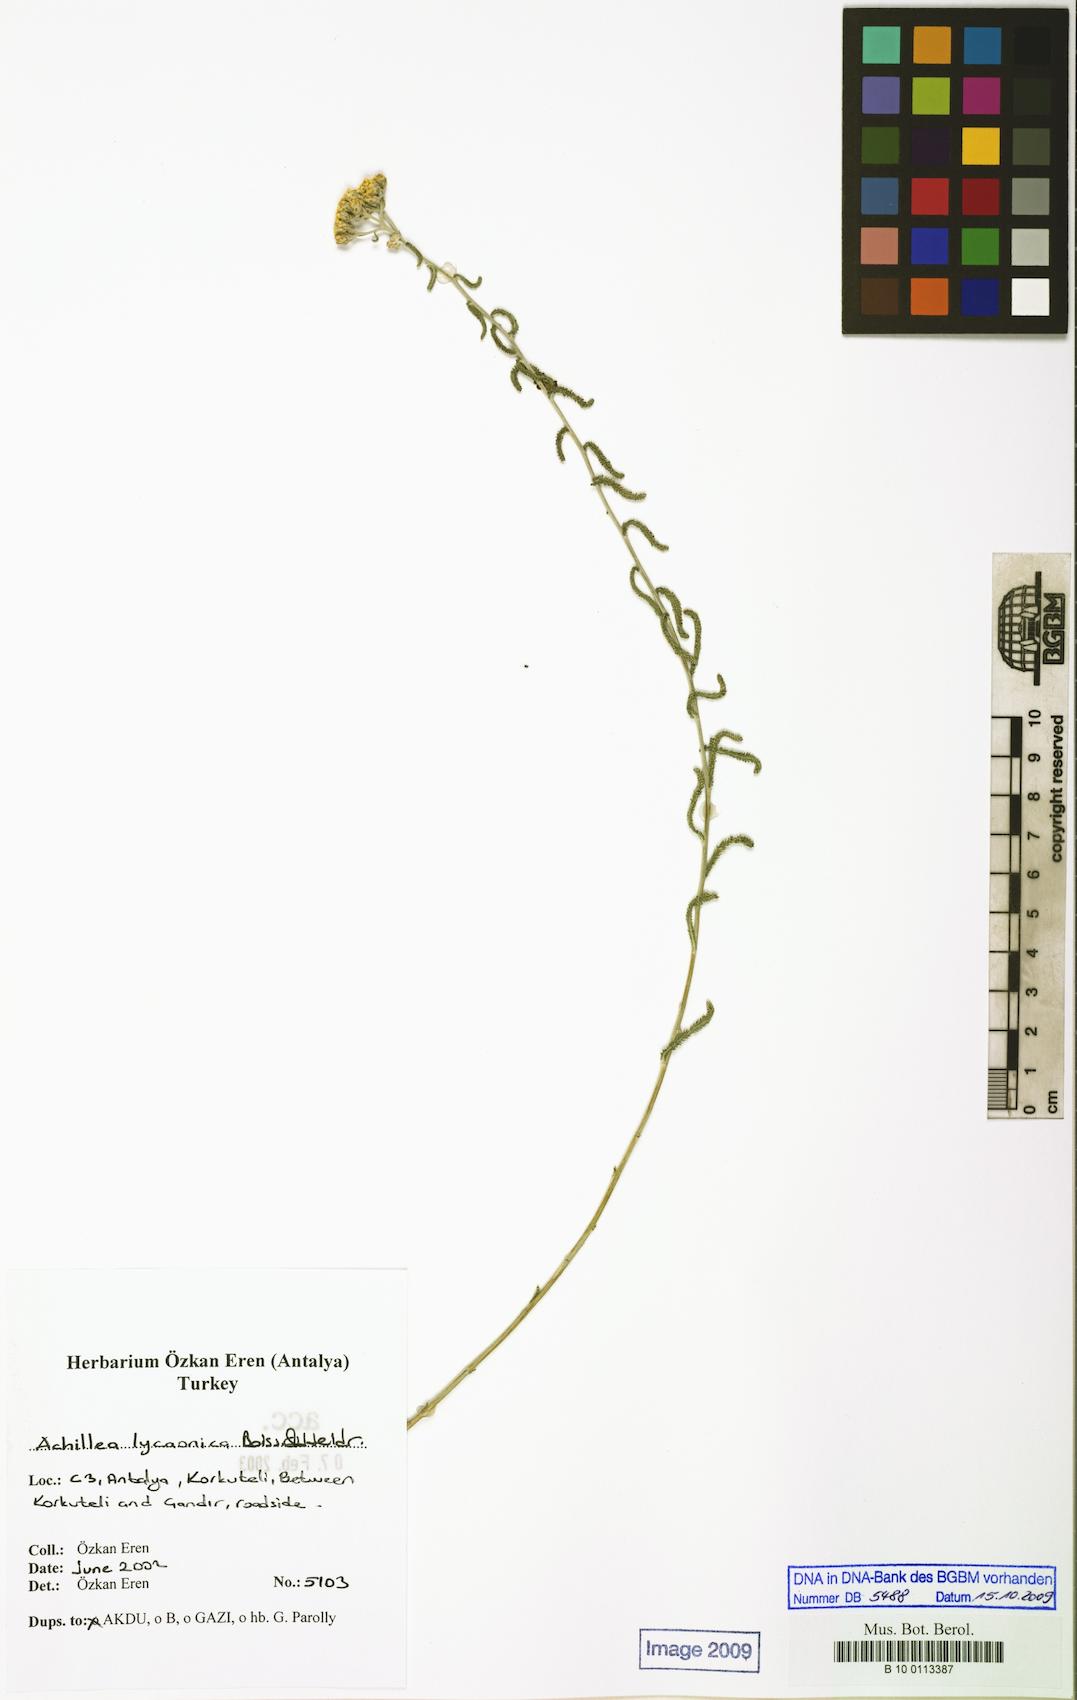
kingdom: Plantae
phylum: Tracheophyta
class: Magnoliopsida
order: Asterales
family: Asteraceae
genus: Achillea
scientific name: Achillea lycaonica
